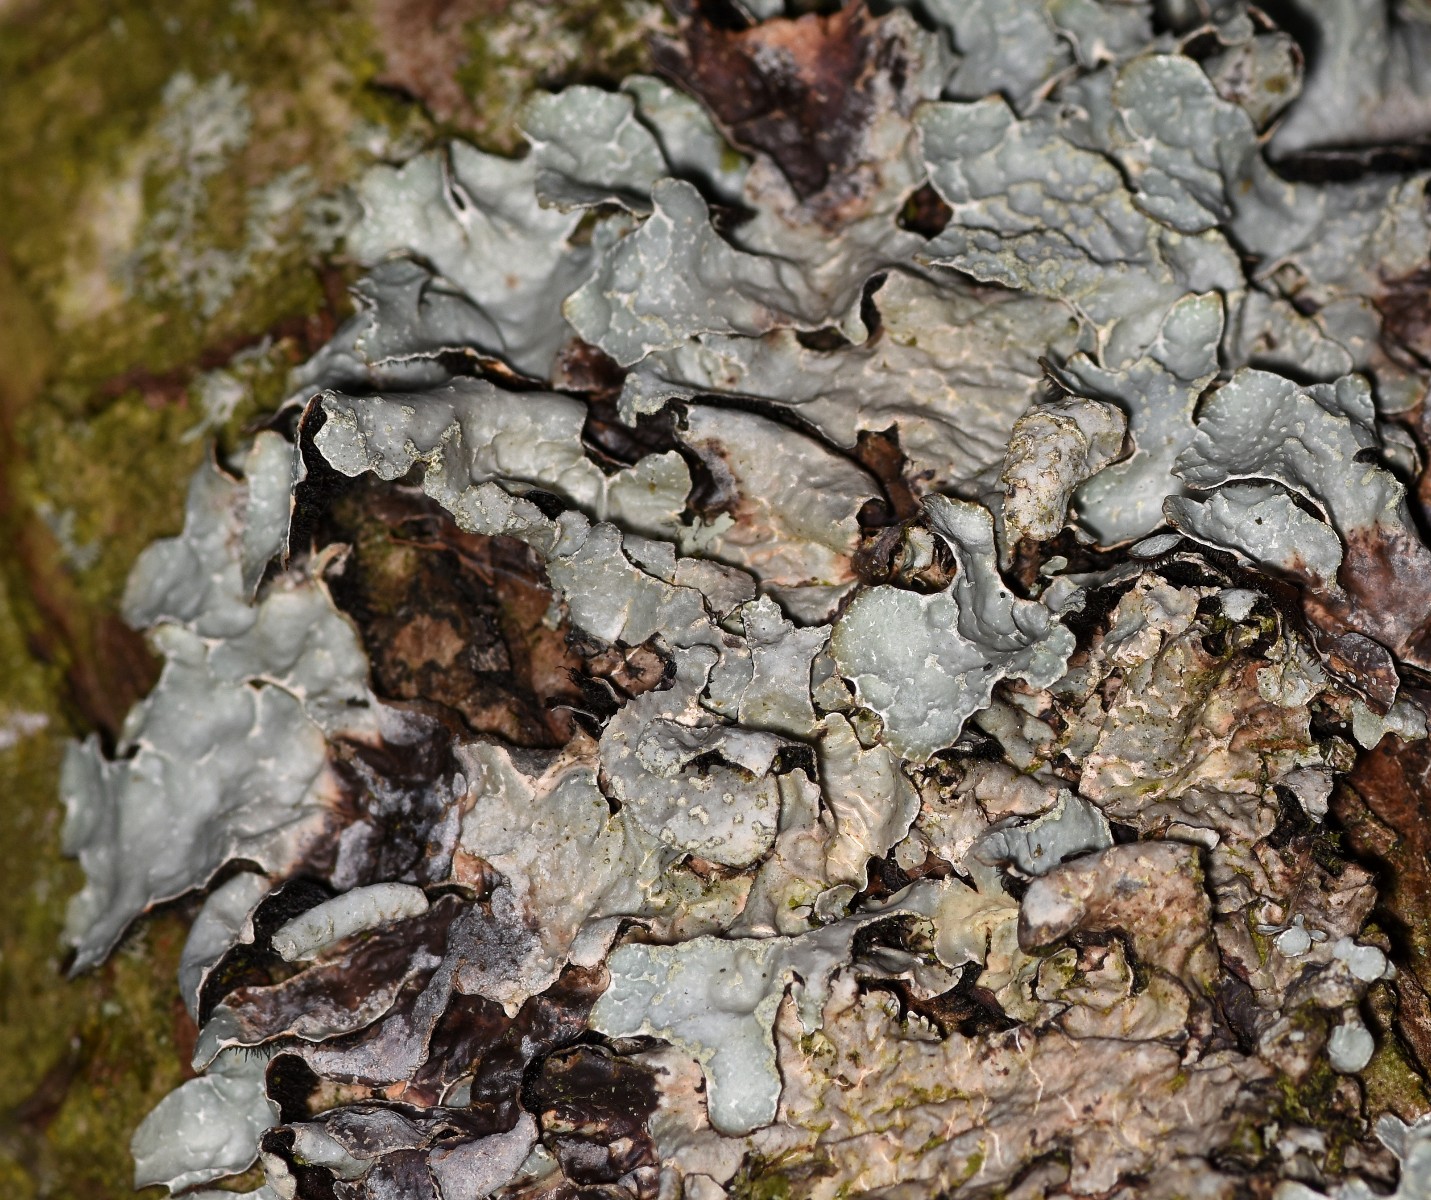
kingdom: Fungi
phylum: Ascomycota
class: Lecanoromycetes
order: Lecanorales
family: Parmeliaceae
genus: Parmelia
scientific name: Parmelia sulcata
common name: rynket skållav
